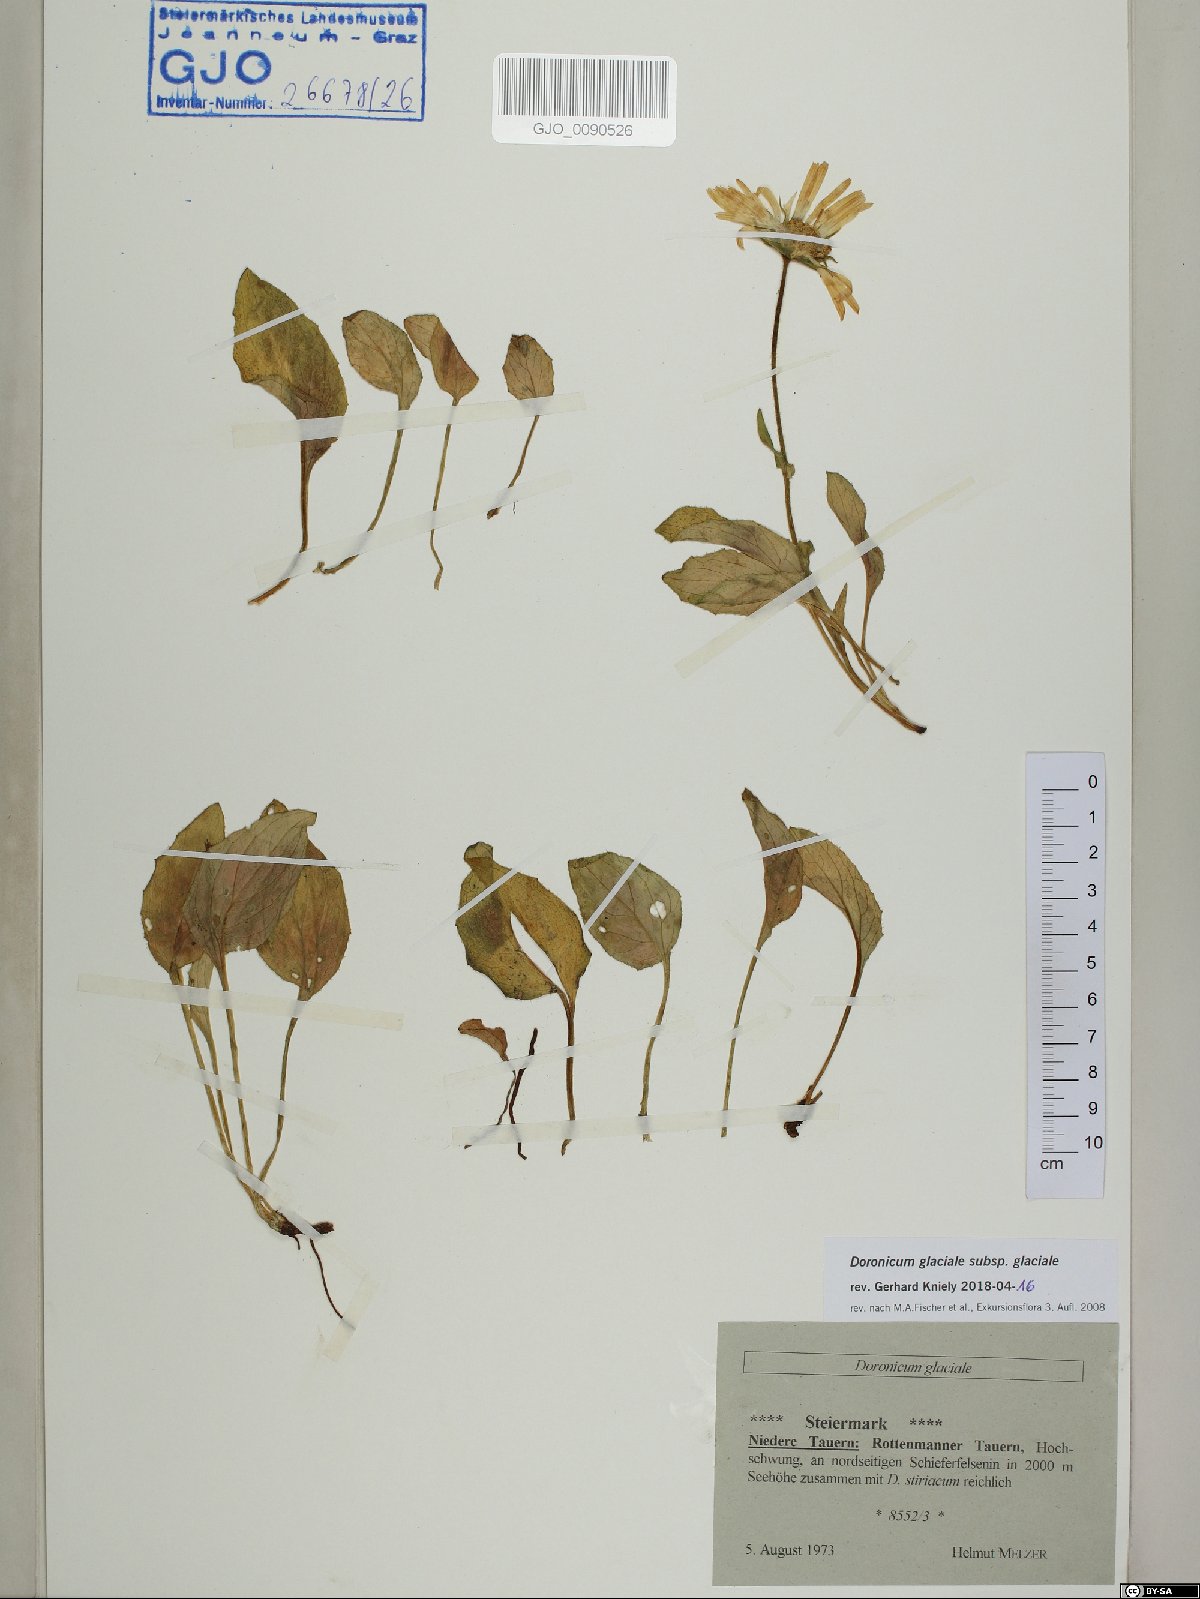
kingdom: Plantae
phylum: Tracheophyta
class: Magnoliopsida
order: Asterales
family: Asteraceae
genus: Doronicum
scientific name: Doronicum glaciale
